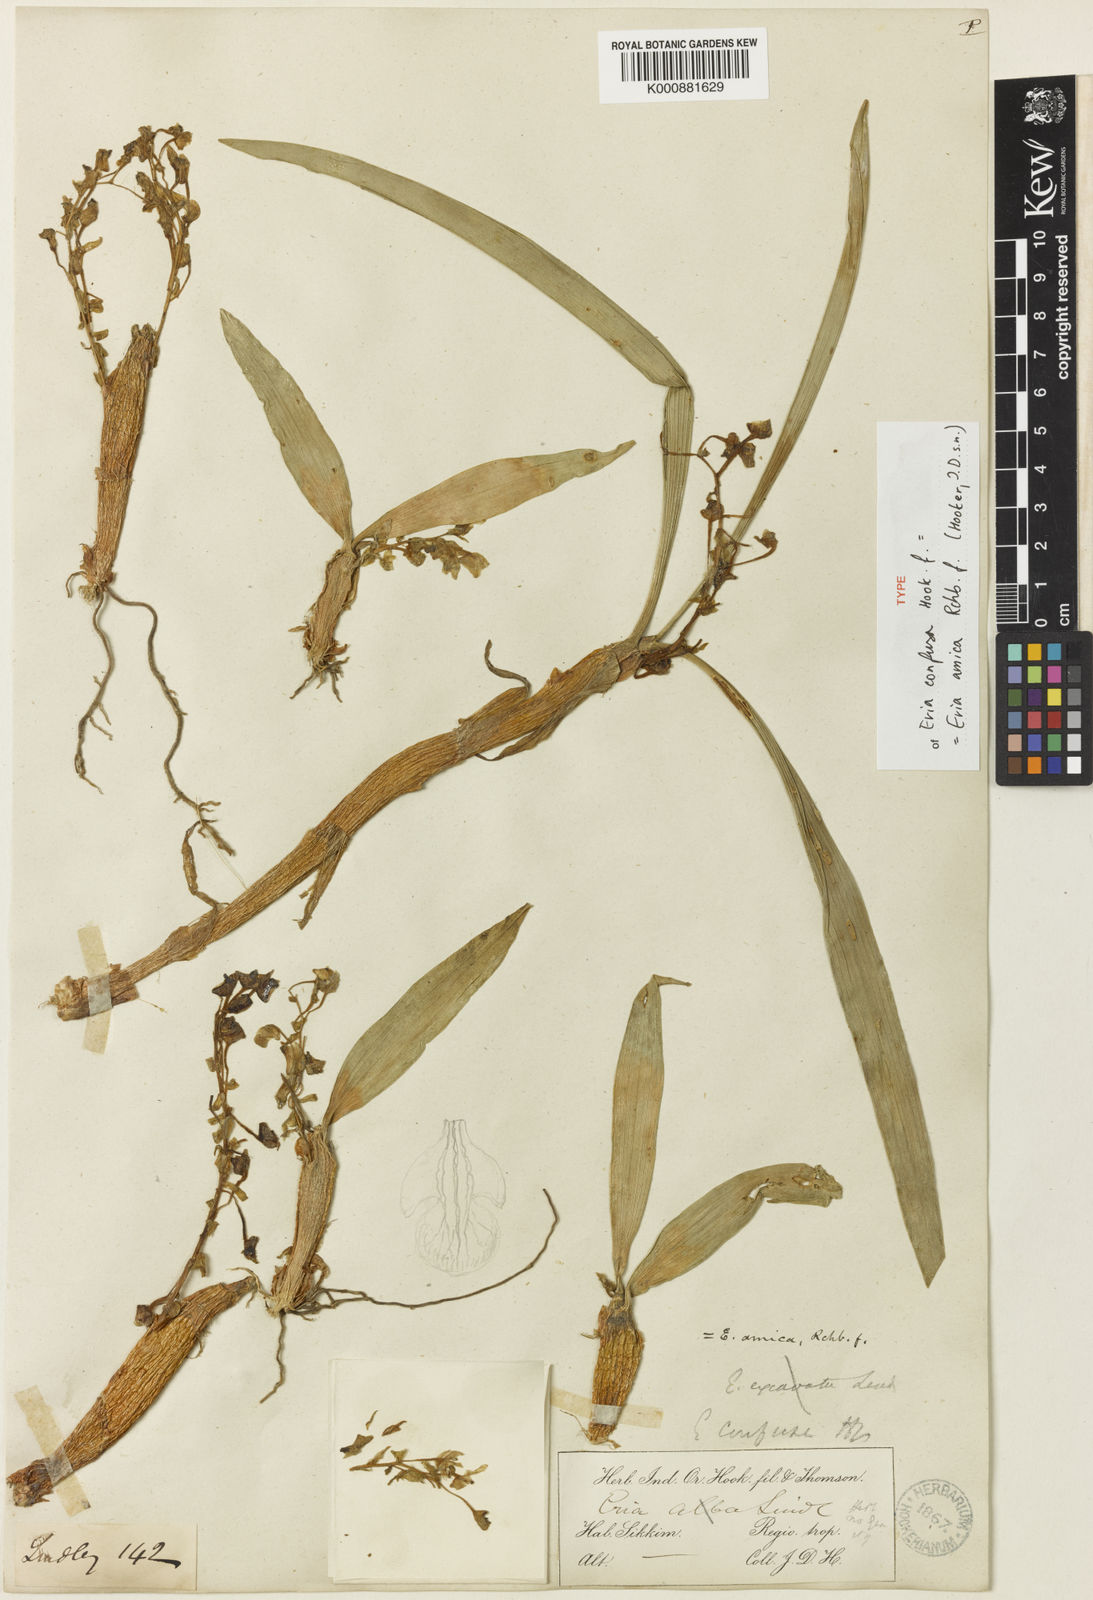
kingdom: Plantae
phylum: Tracheophyta
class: Liliopsida
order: Asparagales
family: Orchidaceae
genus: Pinalia
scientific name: Pinalia amica
